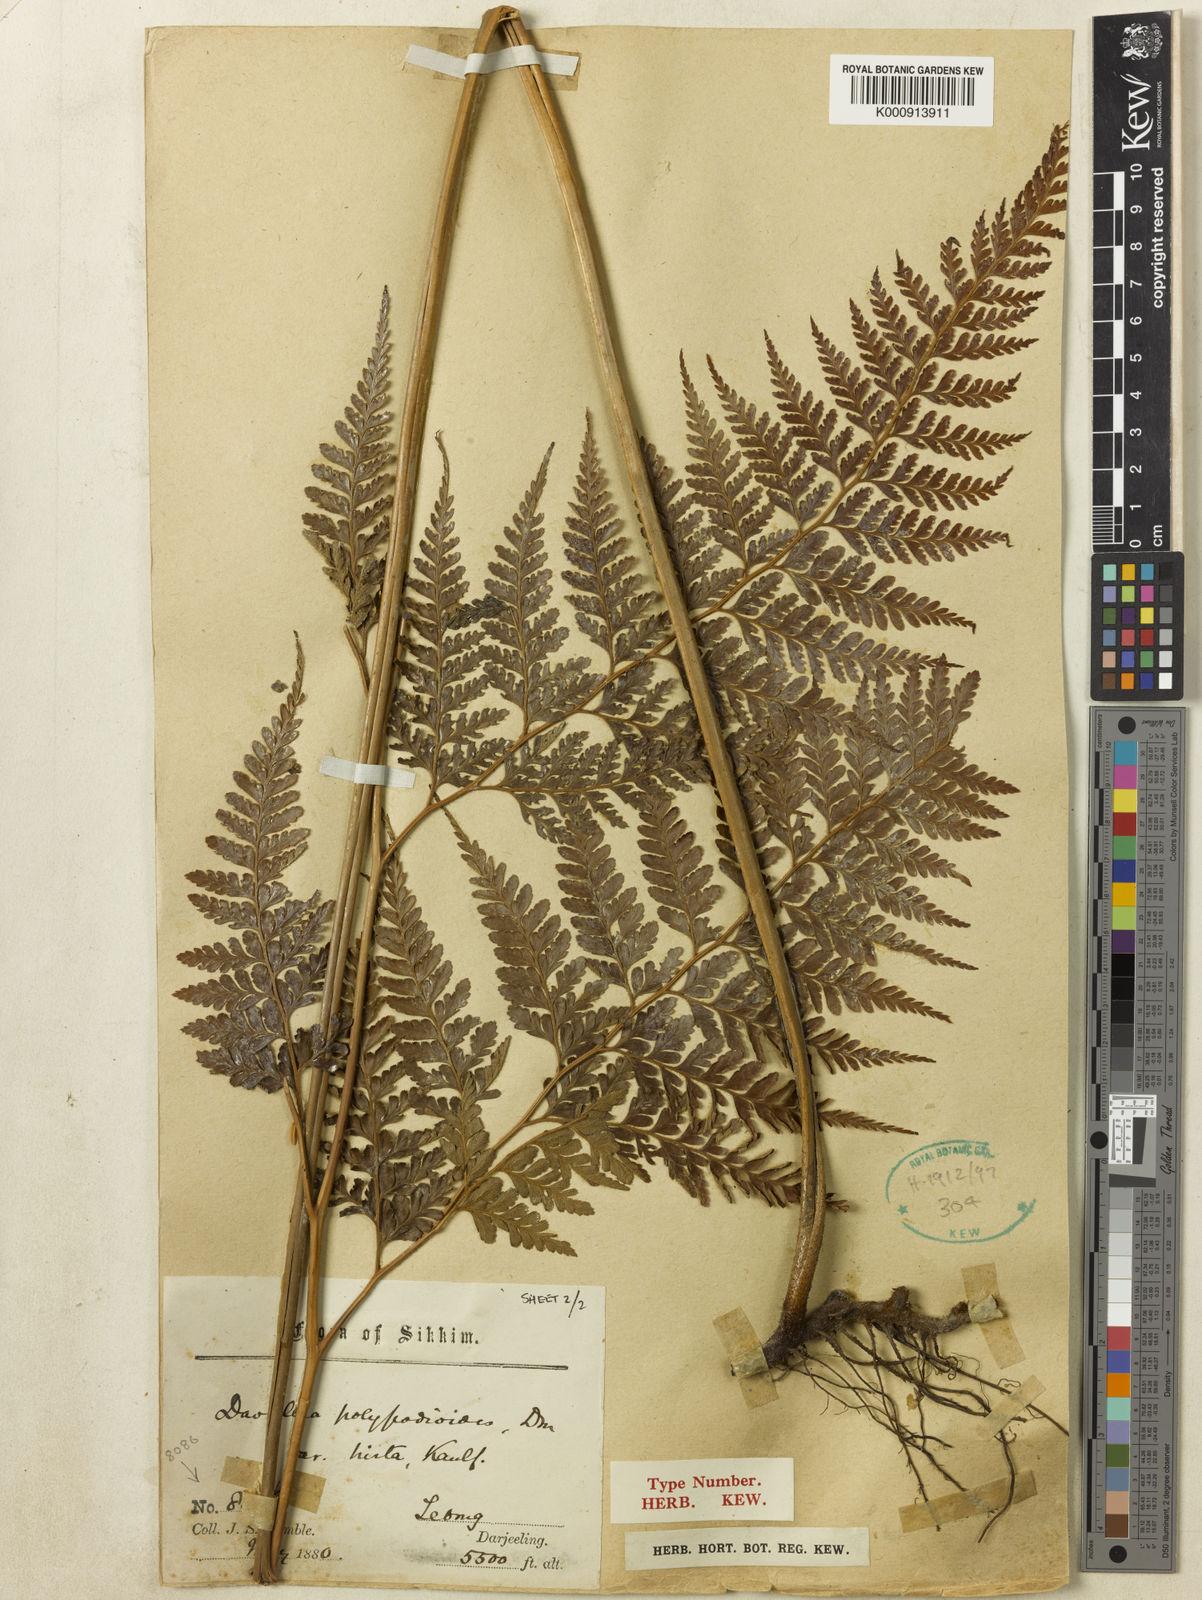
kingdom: Plantae
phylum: Tracheophyta
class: Polypodiopsida
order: Polypodiales
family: Dennstaedtiaceae
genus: Microlepia
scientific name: Microlepia firma
